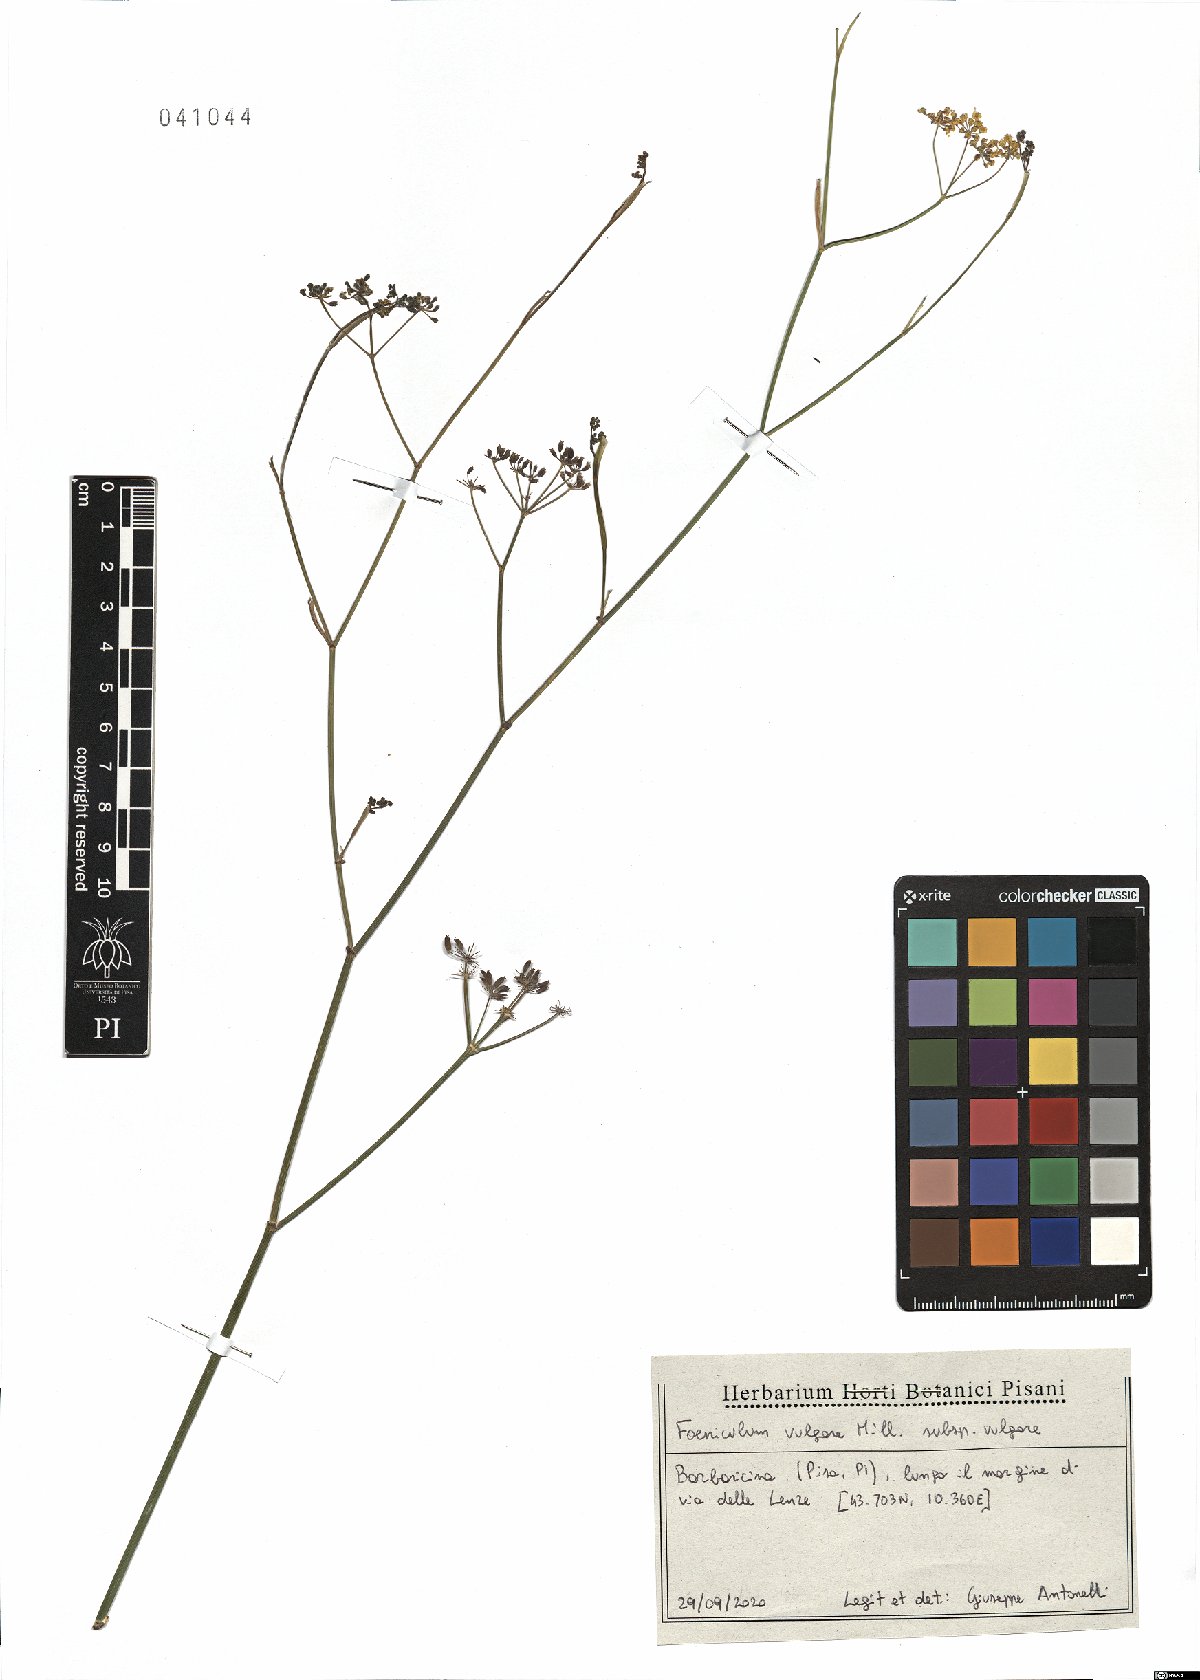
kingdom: Plantae
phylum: Tracheophyta
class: Magnoliopsida
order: Apiales
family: Apiaceae
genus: Foeniculum
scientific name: Foeniculum vulgare
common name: Fennel
